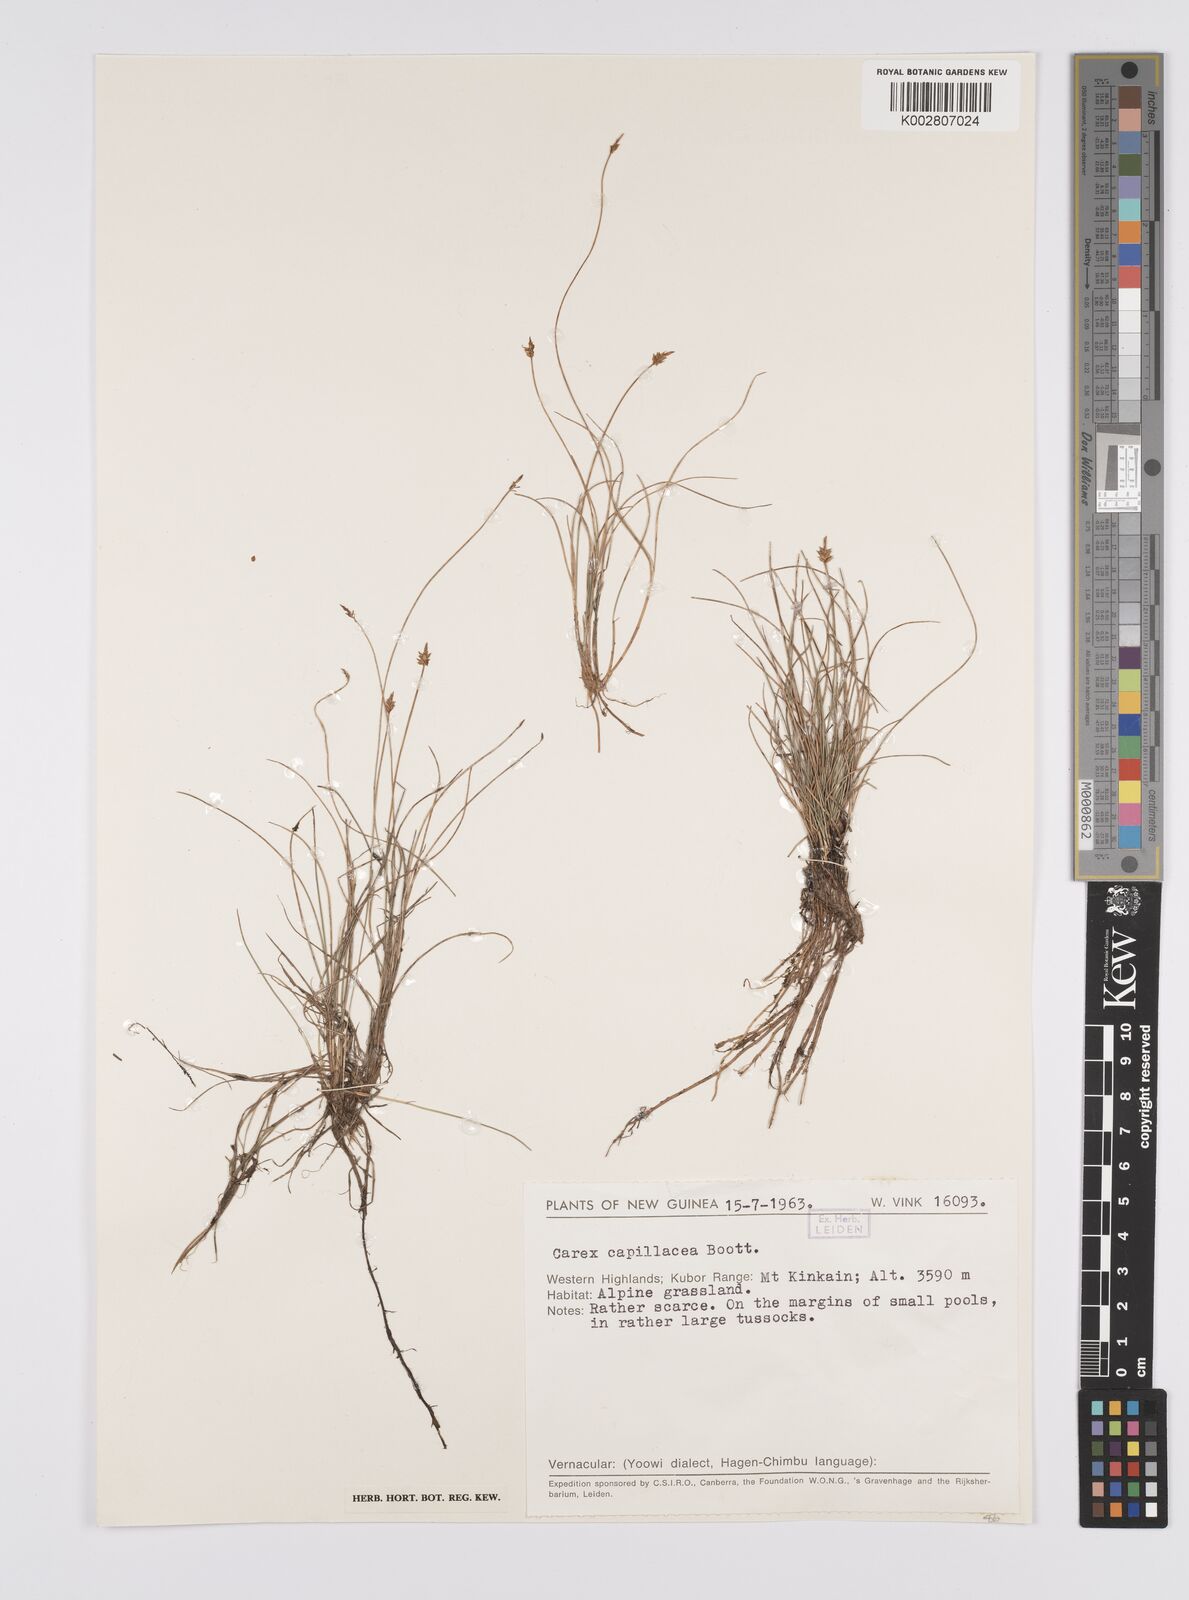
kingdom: Plantae
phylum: Tracheophyta
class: Liliopsida
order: Poales
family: Cyperaceae
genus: Carex
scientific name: Carex capillacea
